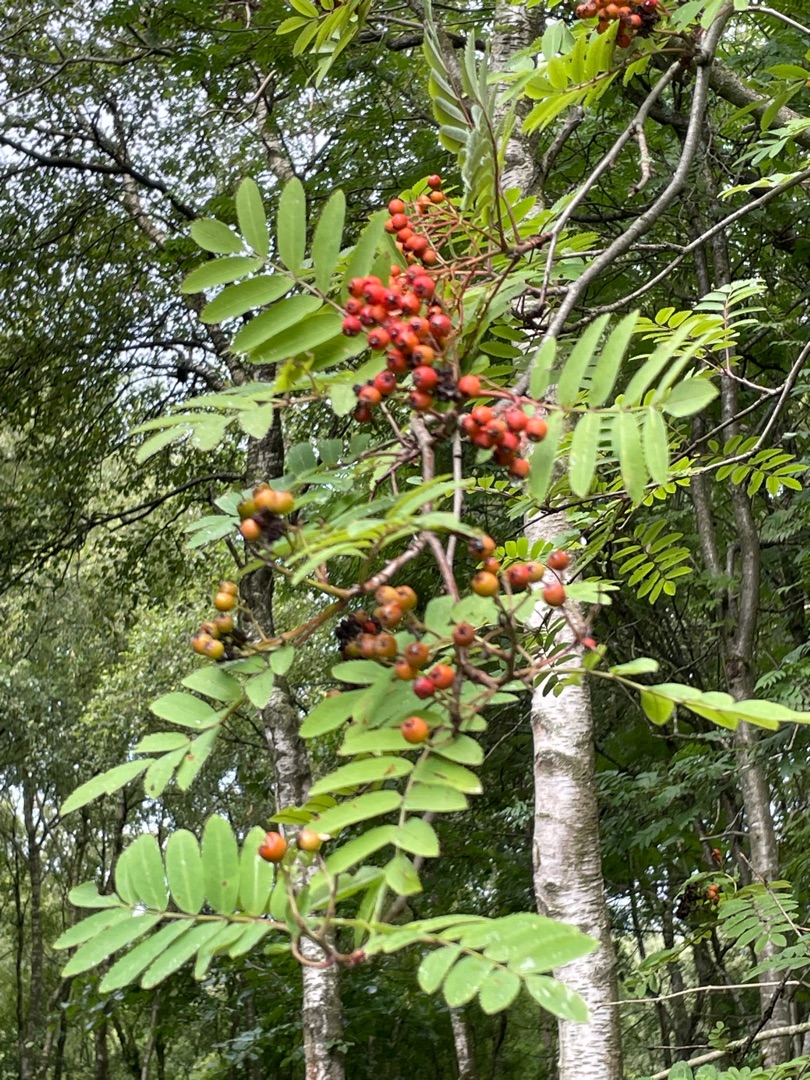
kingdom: Plantae
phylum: Tracheophyta
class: Magnoliopsida
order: Rosales
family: Rosaceae
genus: Sorbus
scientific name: Sorbus aucuparia
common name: Almindelig røn
